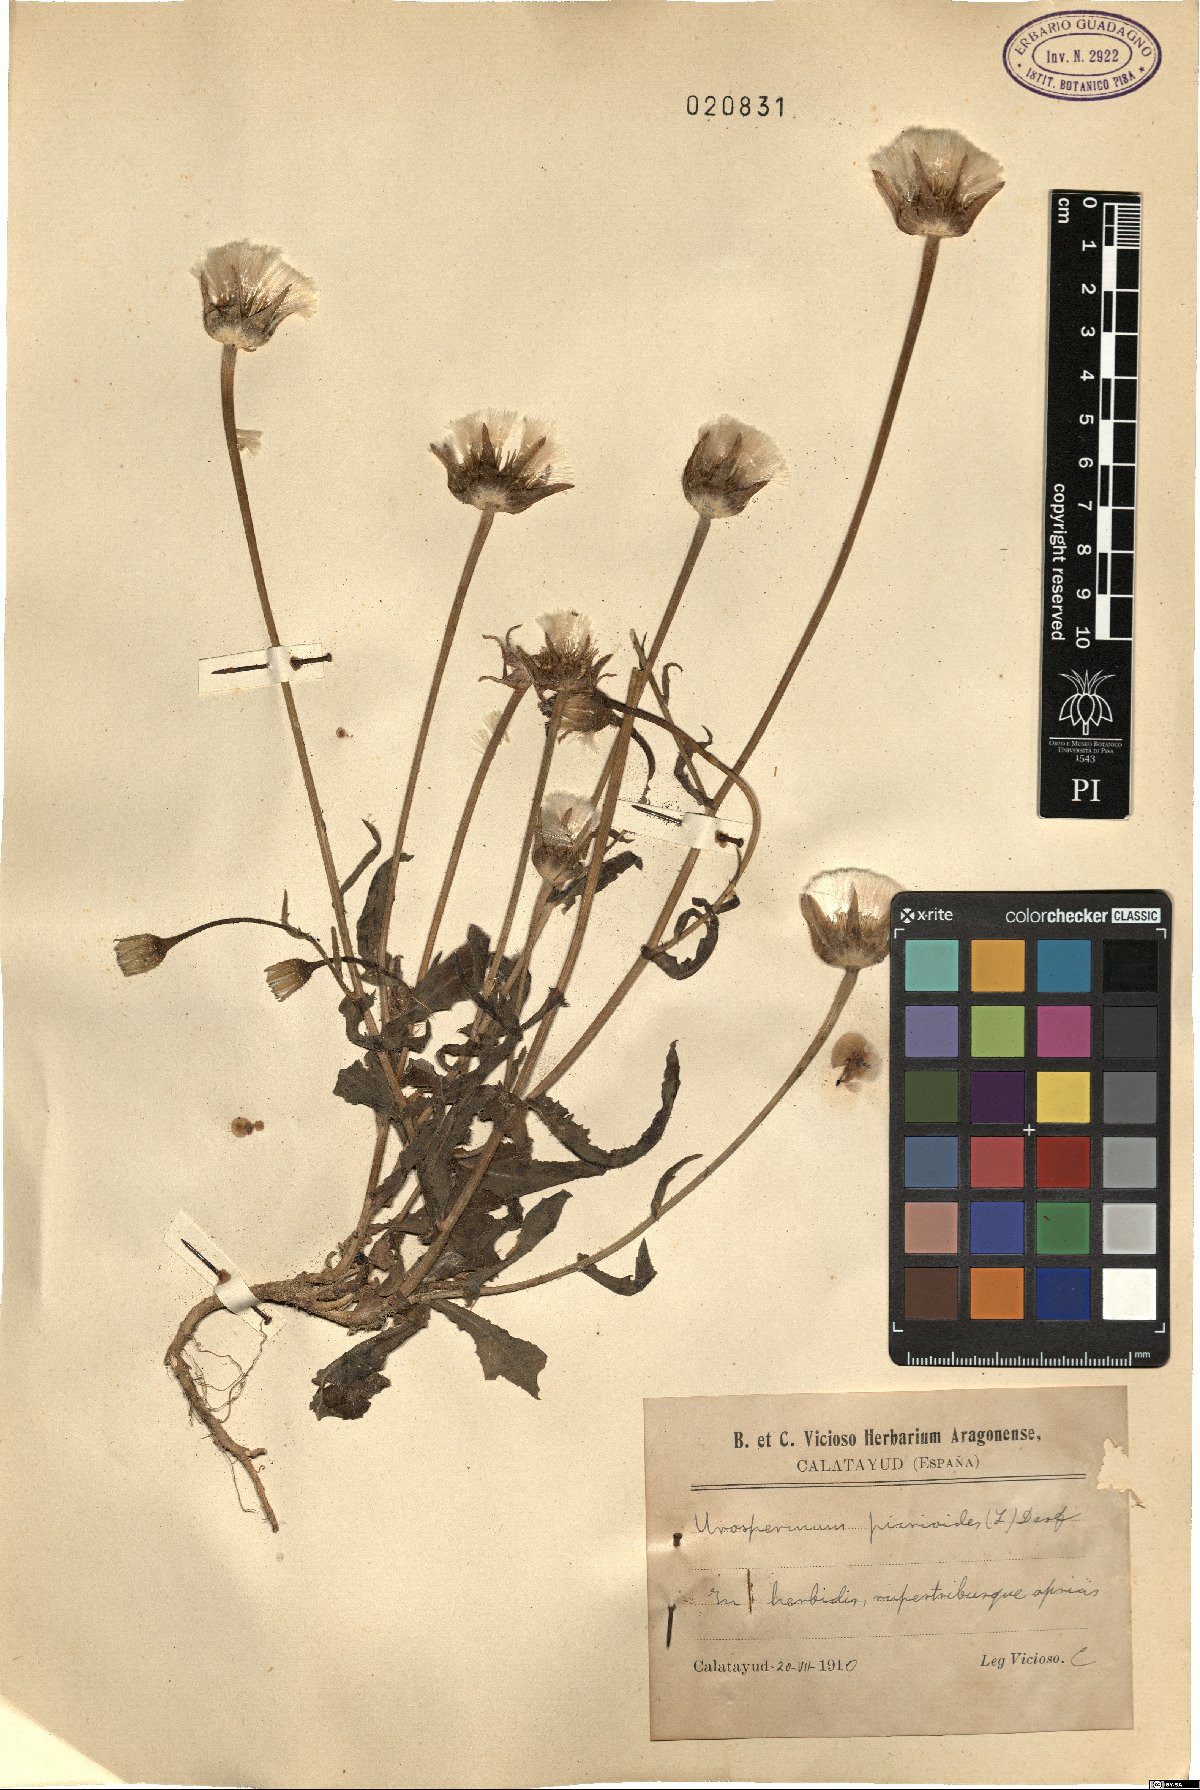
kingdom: Plantae
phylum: Tracheophyta
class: Magnoliopsida
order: Asterales
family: Asteraceae
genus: Urospermum
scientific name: Urospermum picroides
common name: False hawkbit
